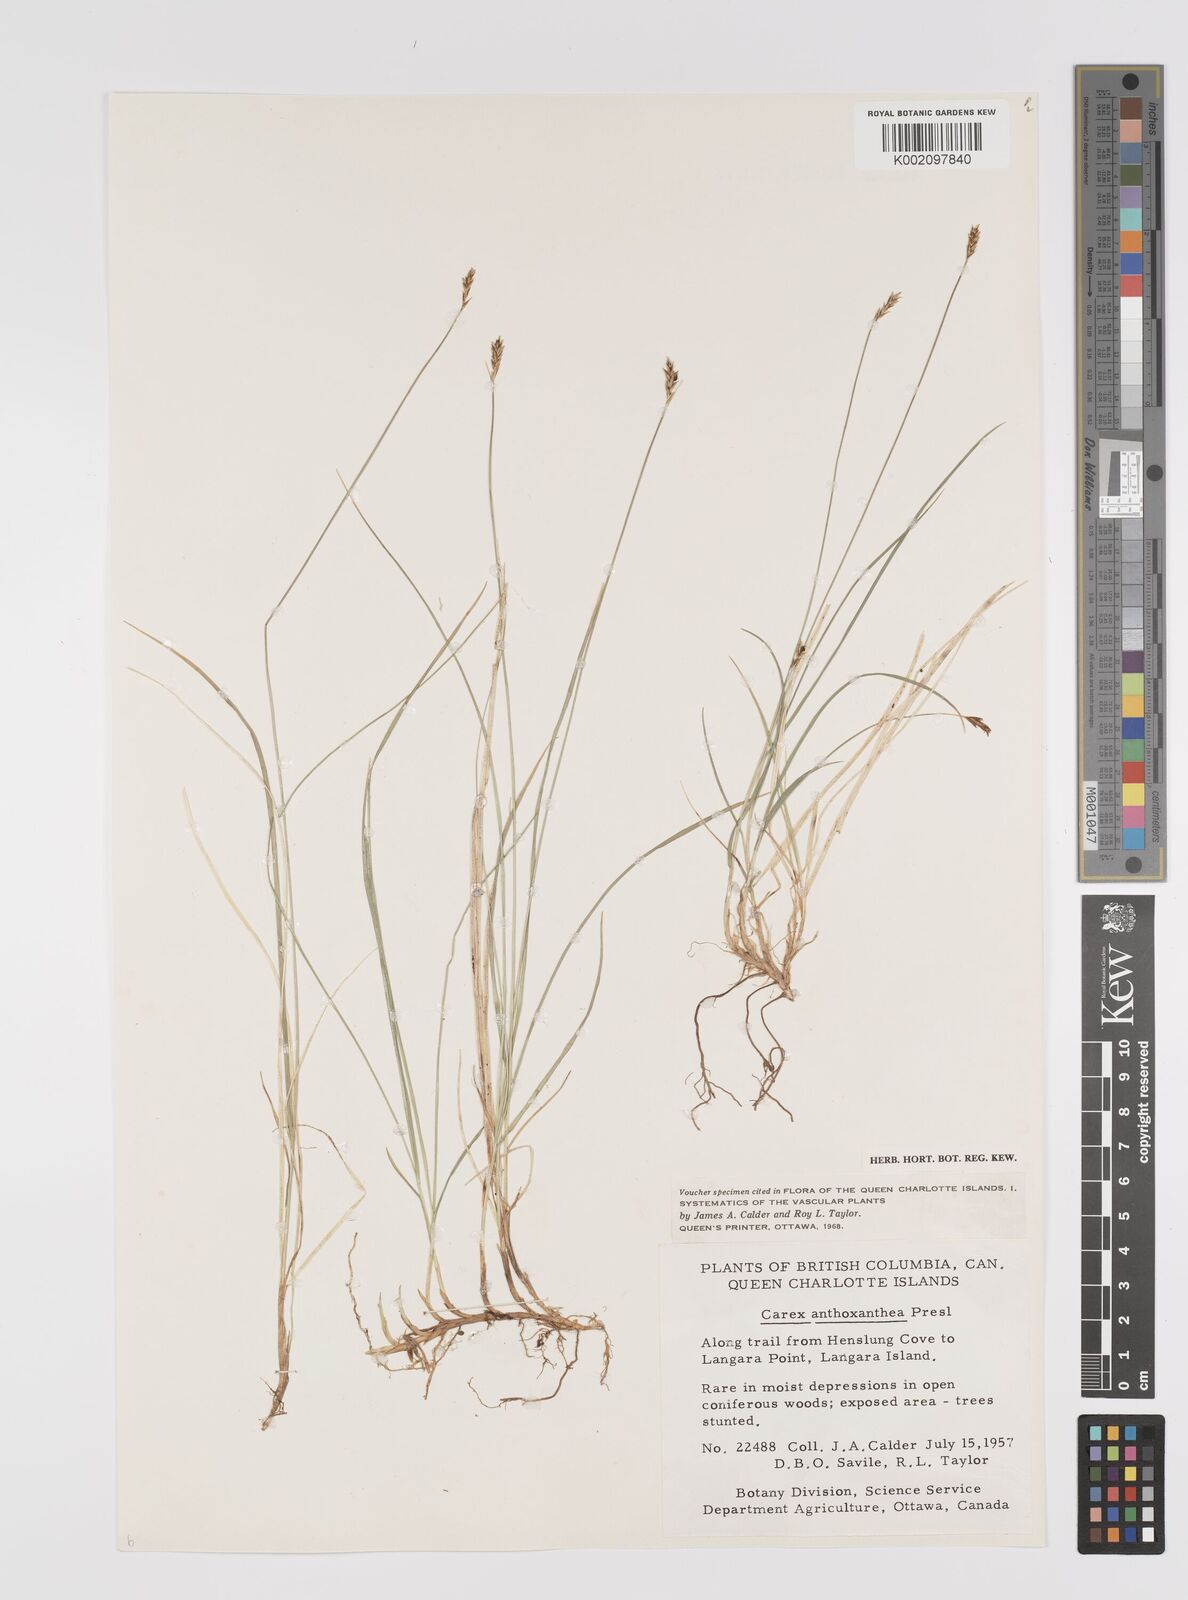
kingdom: Plantae
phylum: Tracheophyta
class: Liliopsida
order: Poales
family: Cyperaceae
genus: Carex
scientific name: Carex anthoxanthea
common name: Grassy-slope arctic sedge
